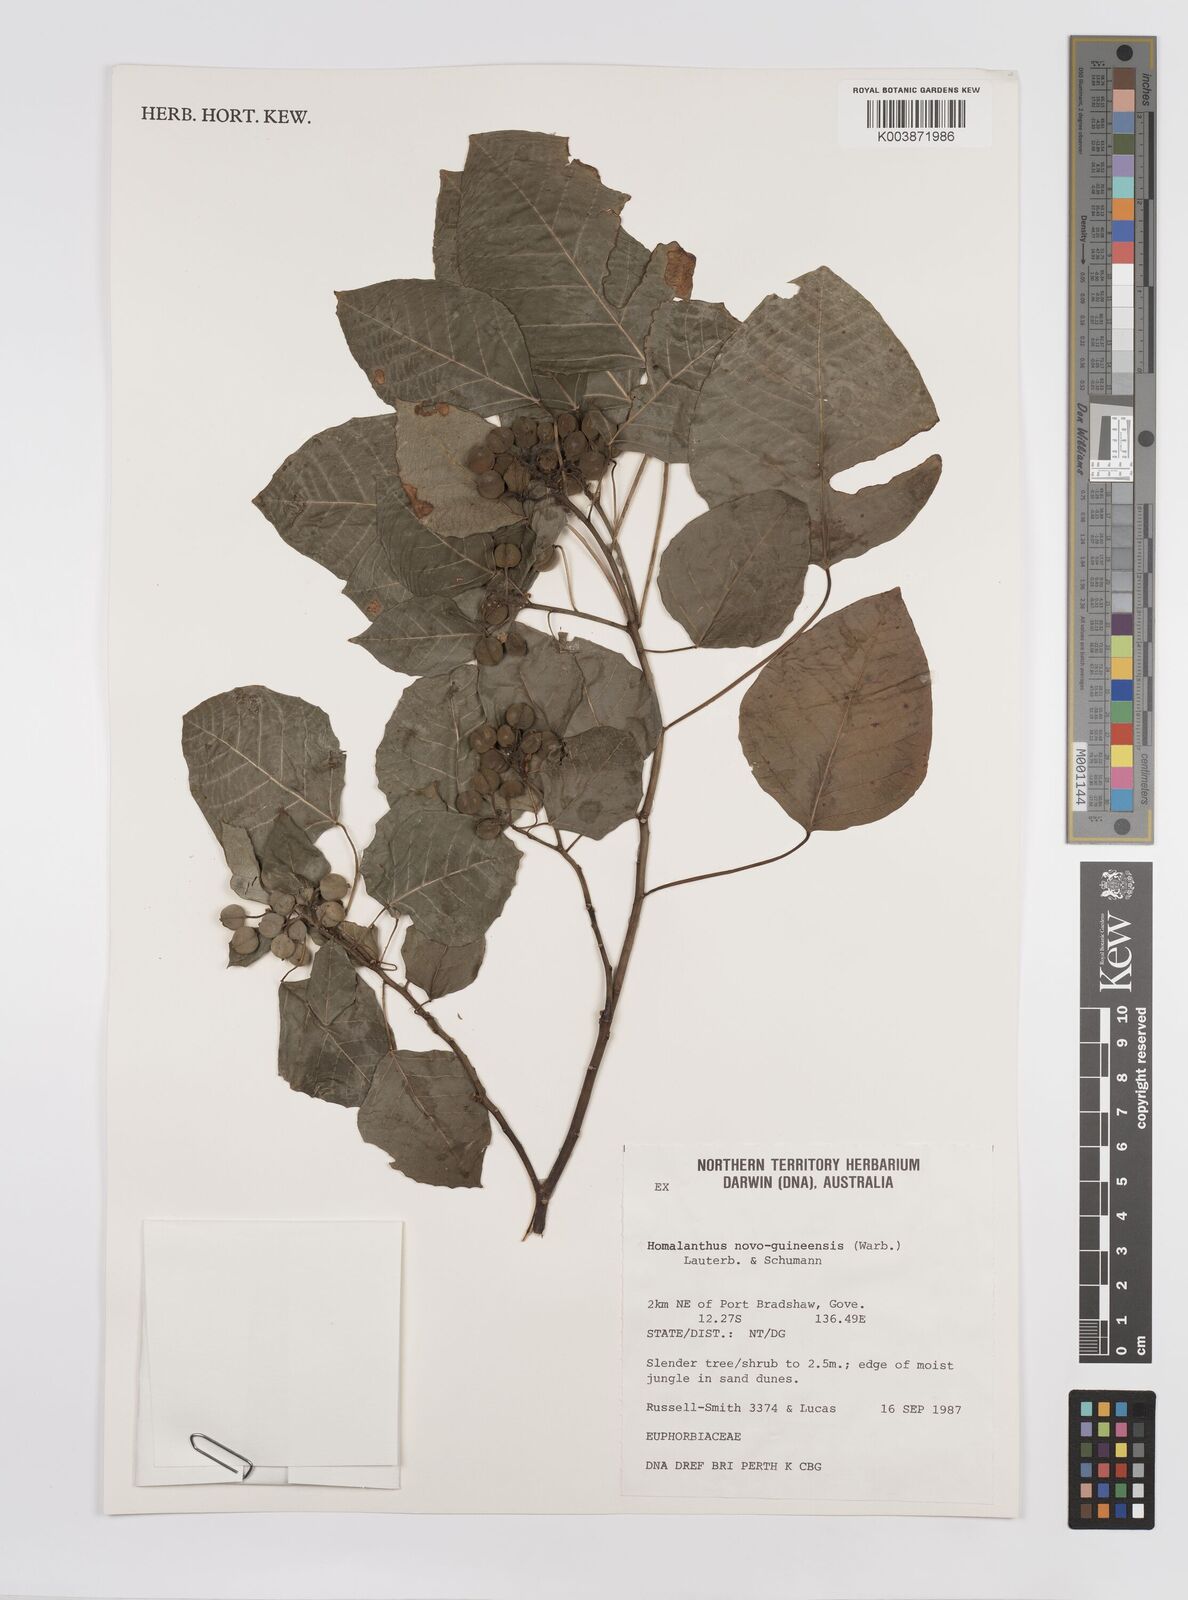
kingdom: Plantae
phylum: Tracheophyta
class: Magnoliopsida
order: Malpighiales
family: Euphorbiaceae
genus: Homalanthus
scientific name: Homalanthus novoguineensis
